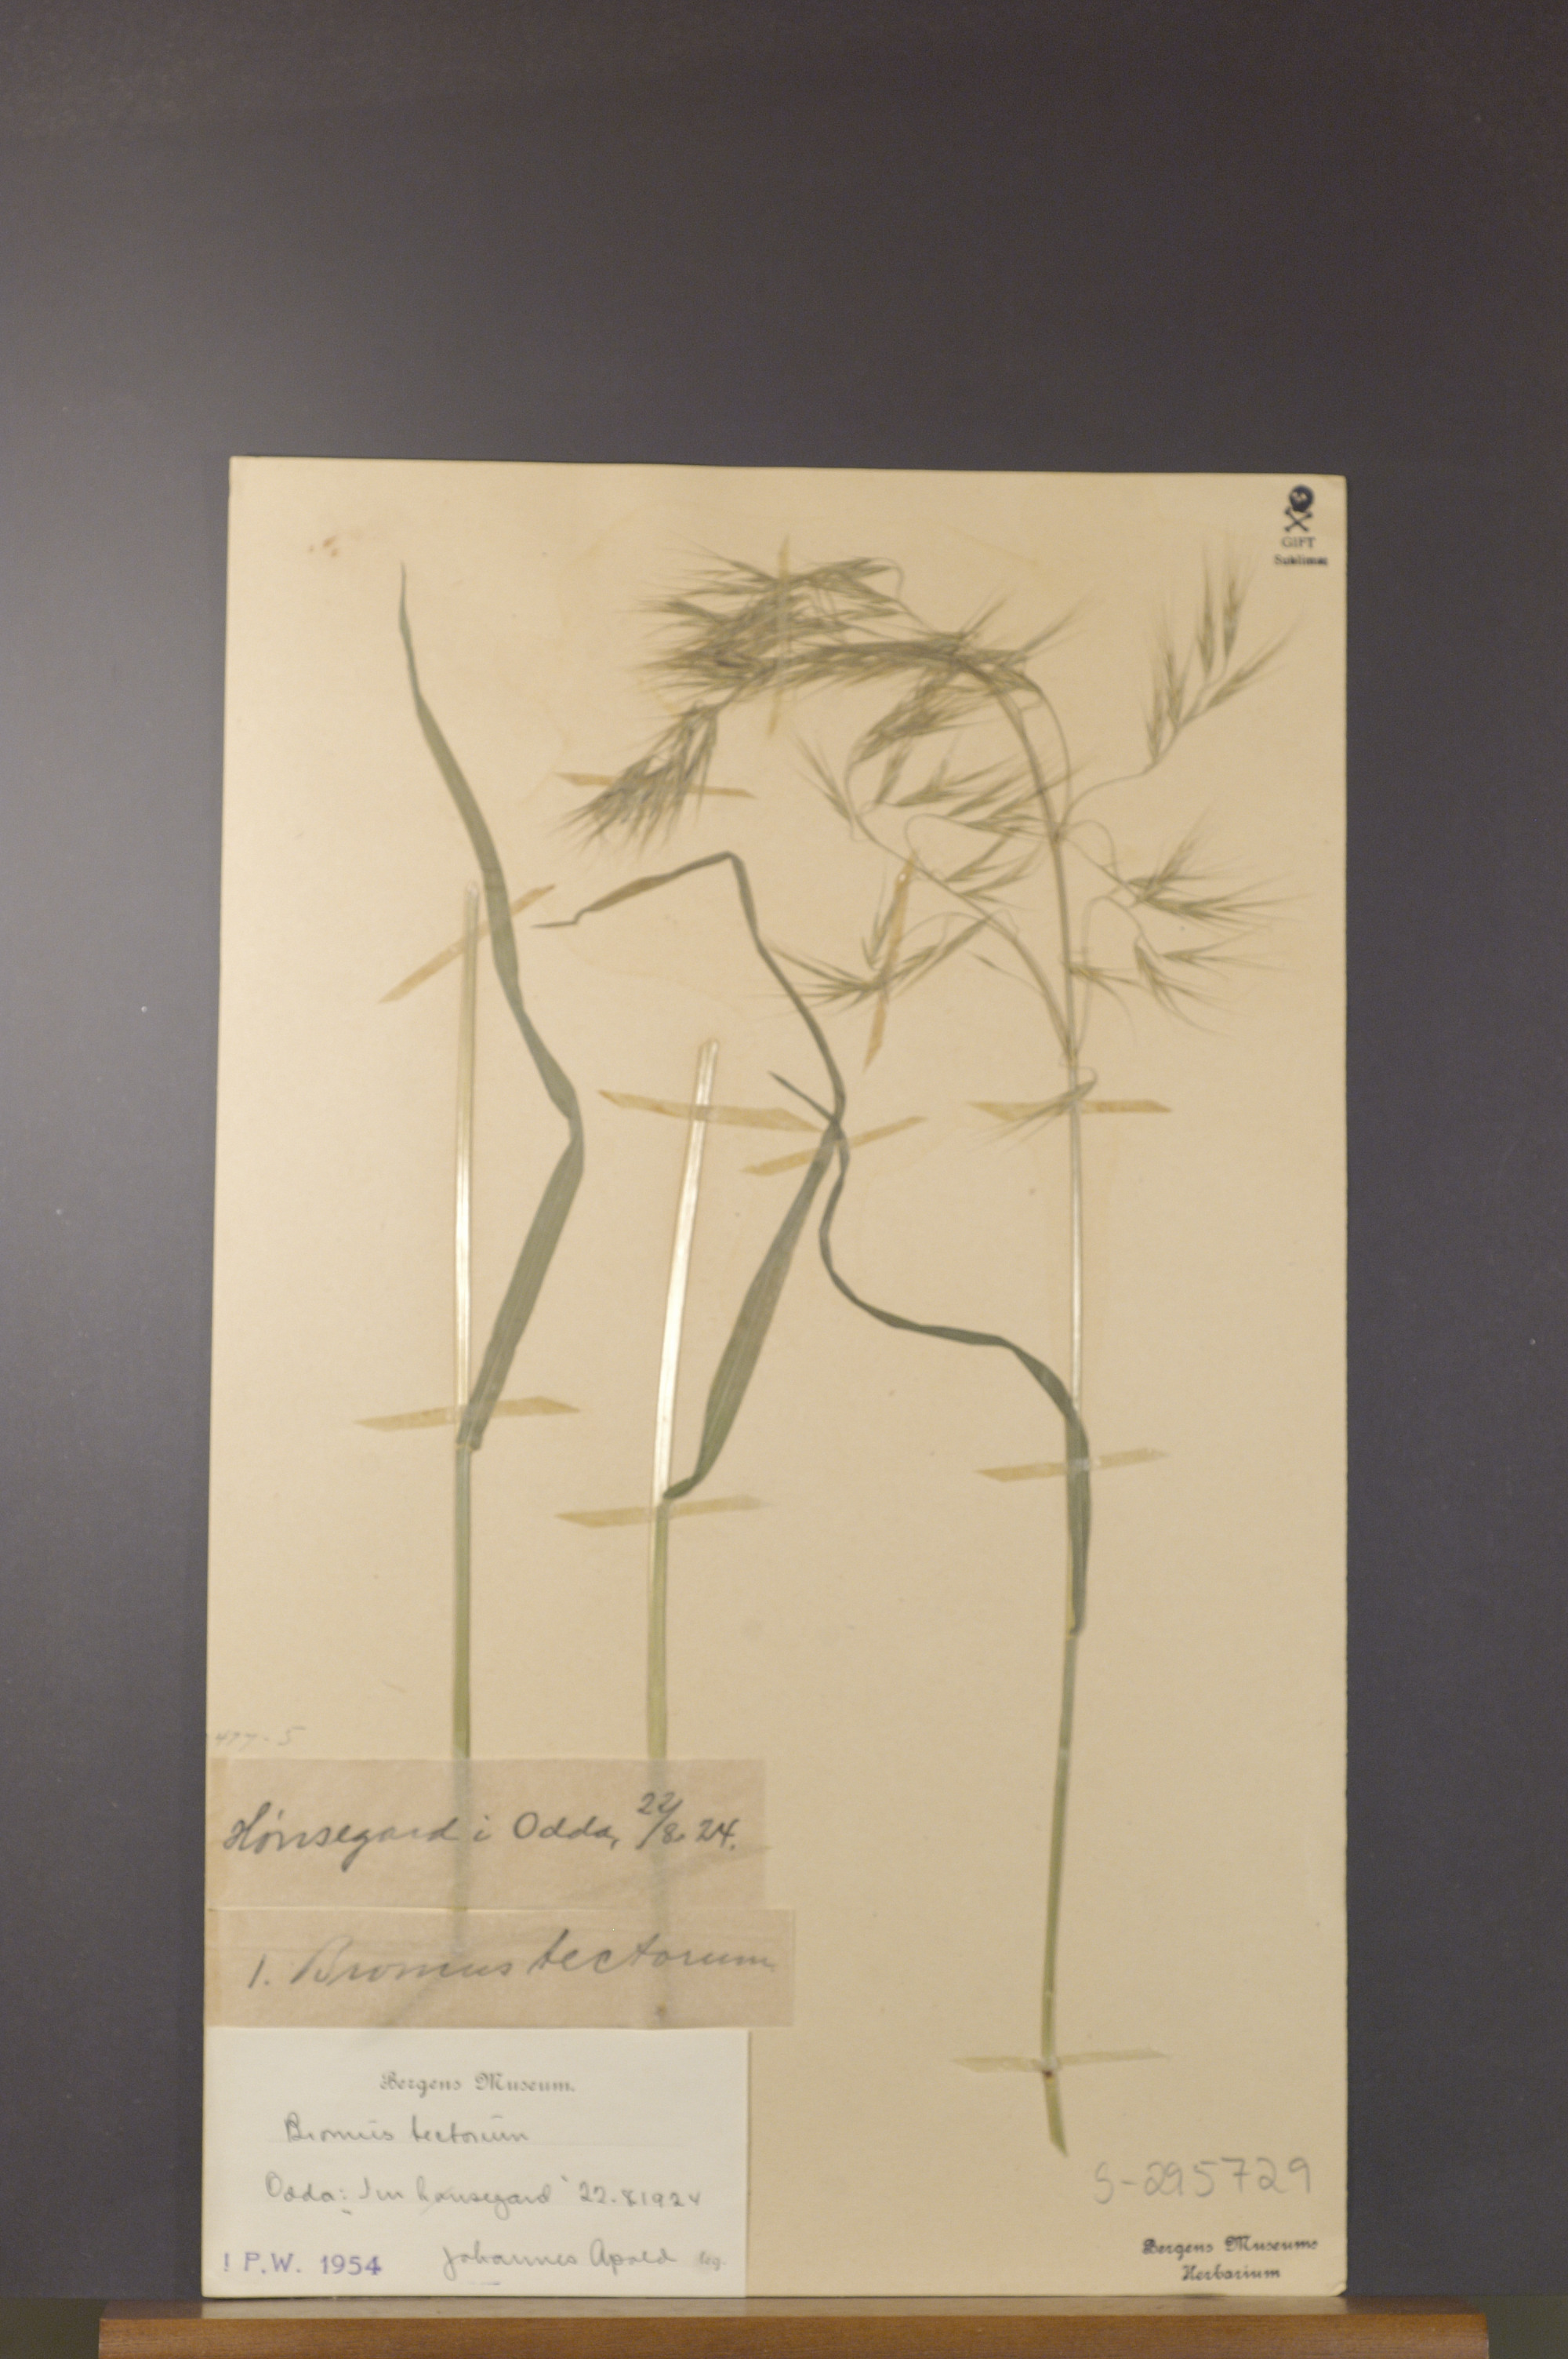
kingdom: Plantae
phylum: Tracheophyta
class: Liliopsida
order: Poales
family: Poaceae
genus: Bromus
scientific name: Bromus tectorum
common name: Cheatgrass
